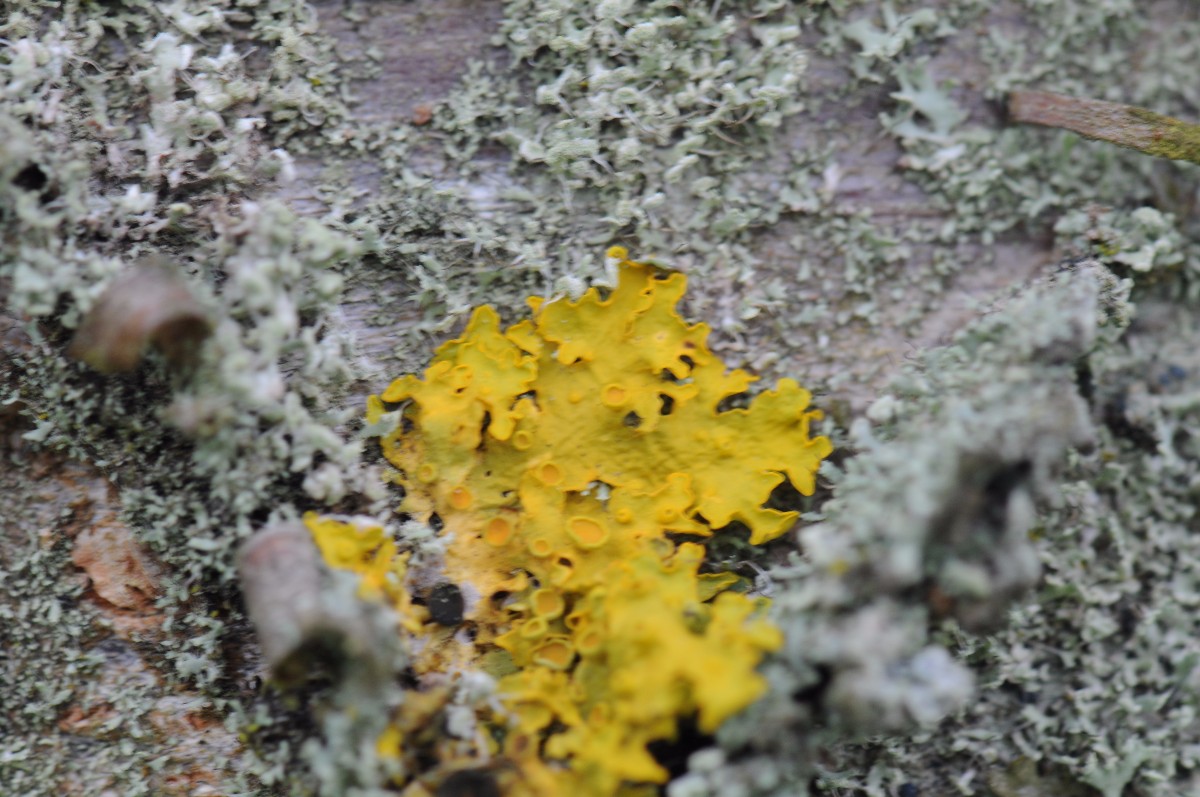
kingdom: Fungi
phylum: Ascomycota
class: Lecanoromycetes
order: Teloschistales
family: Teloschistaceae
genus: Xanthoria
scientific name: Xanthoria parietina
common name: almindelig væggelav
